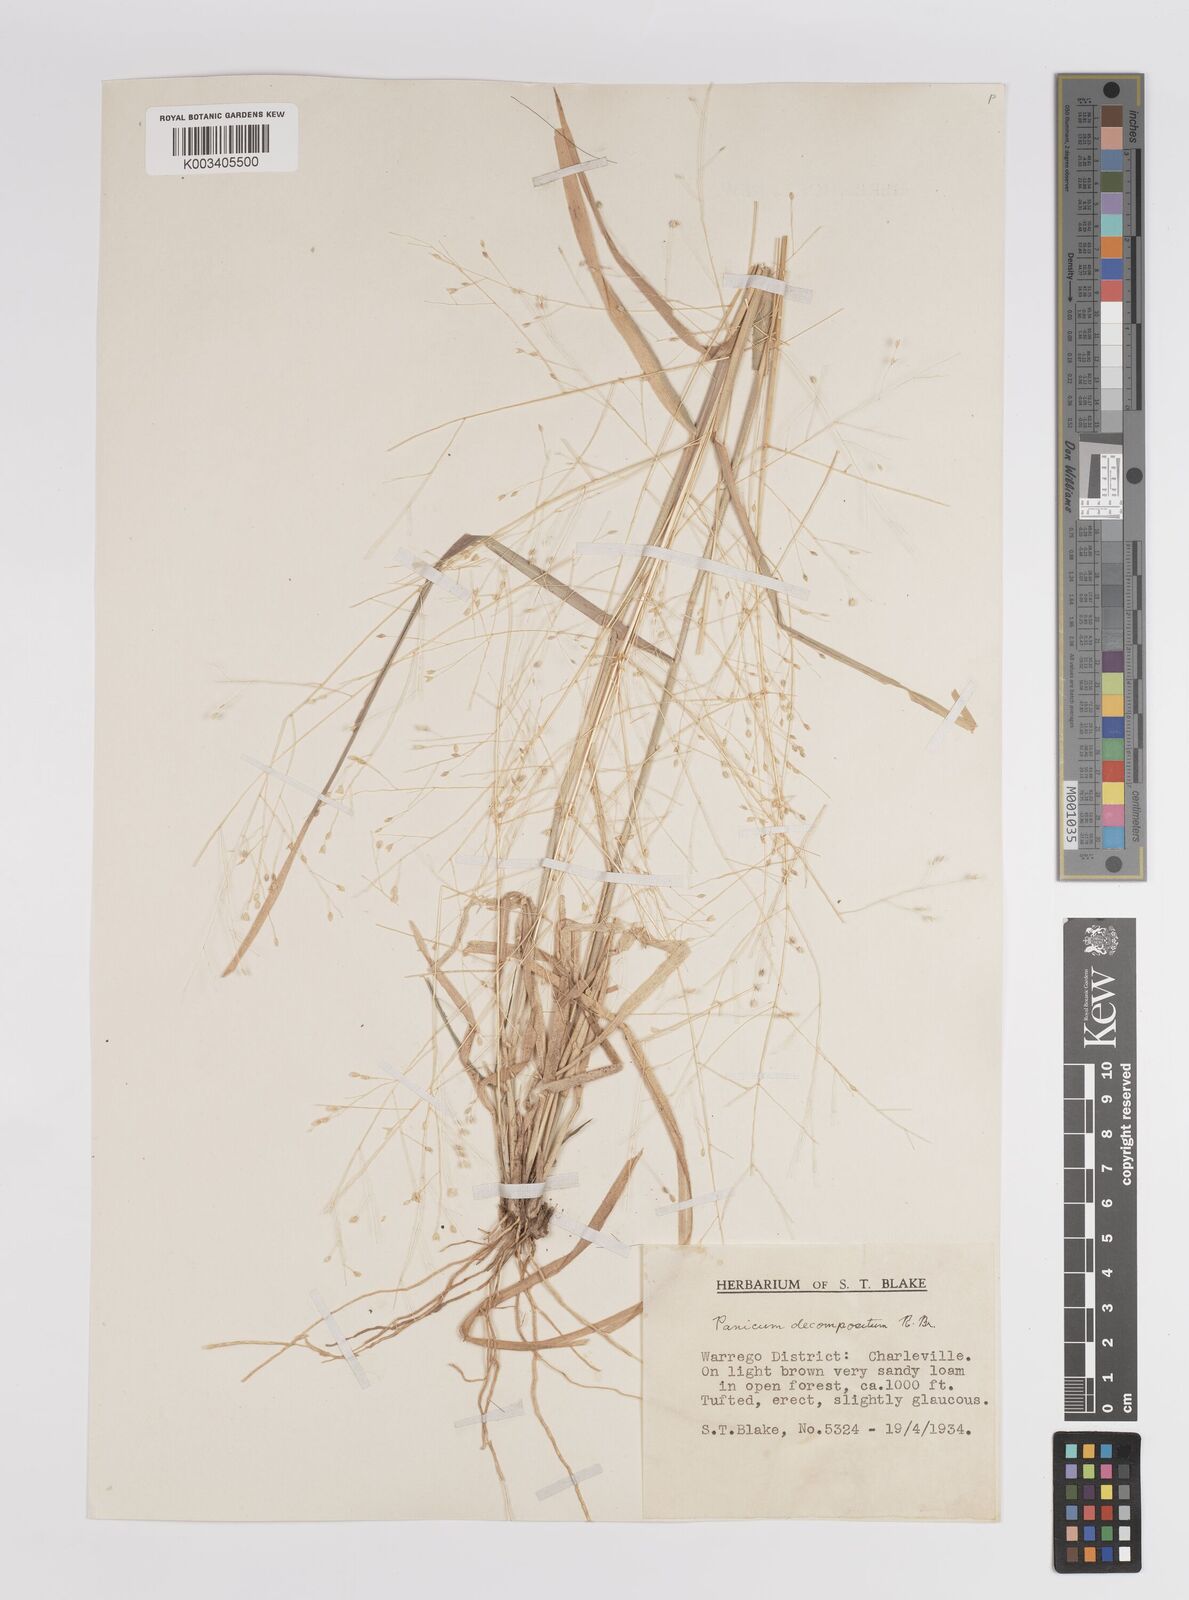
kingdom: Plantae
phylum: Tracheophyta
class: Liliopsida
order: Poales
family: Poaceae
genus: Panicum
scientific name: Panicum
